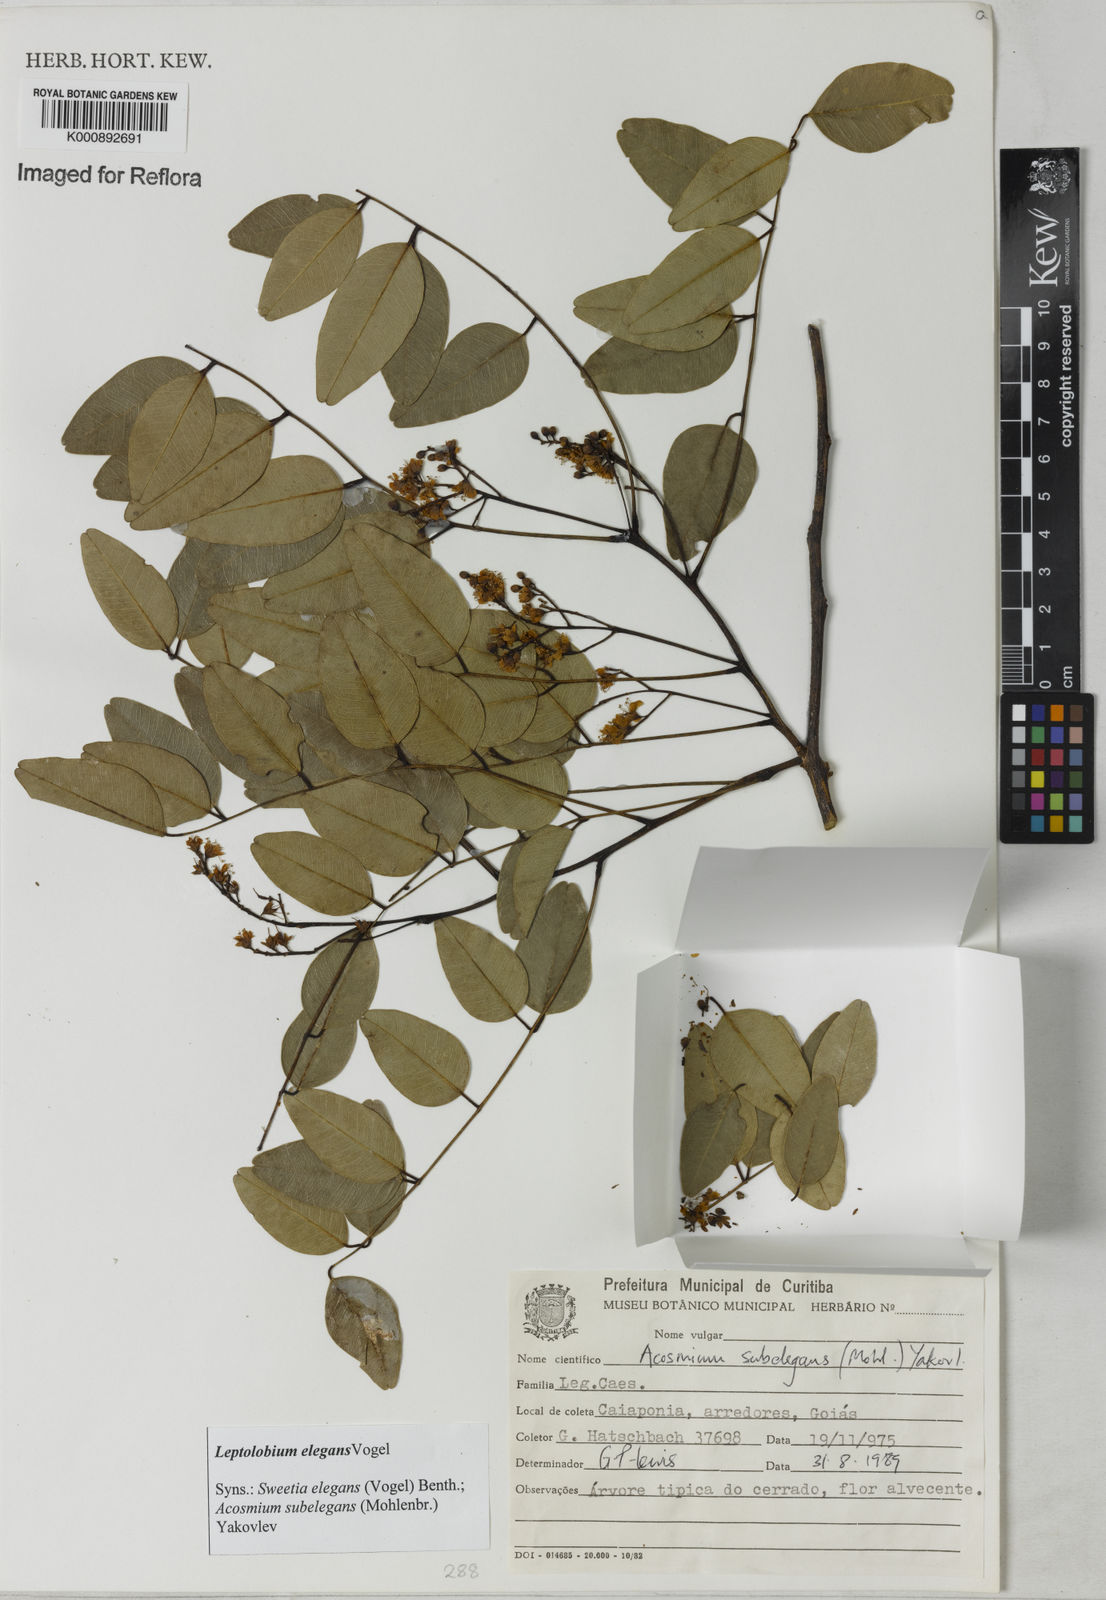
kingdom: Plantae
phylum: Tracheophyta
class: Magnoliopsida
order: Fabales
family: Fabaceae
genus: Leptolobium
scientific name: Leptolobium elegans
